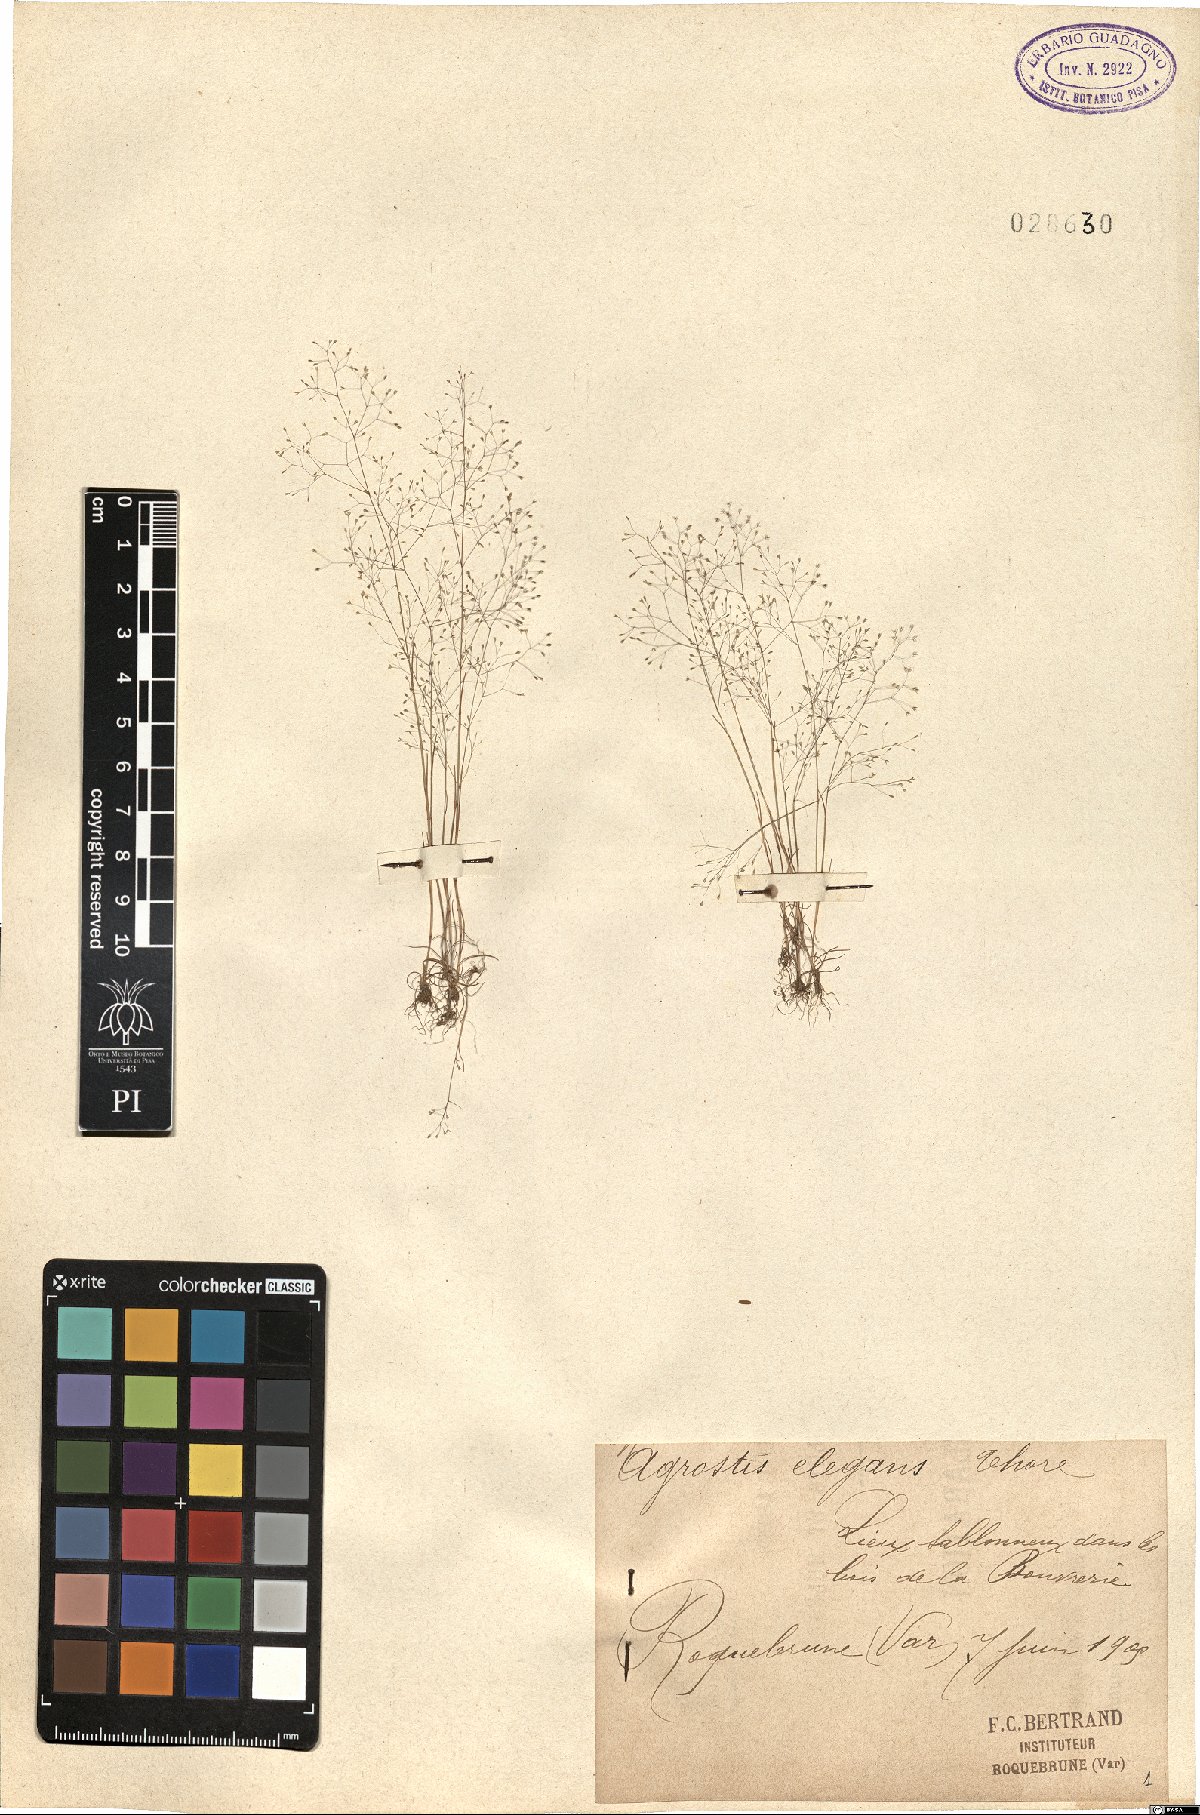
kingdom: Plantae
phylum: Tracheophyta
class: Liliopsida
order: Poales
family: Poaceae
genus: Agrostis
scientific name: Agrostis tenerrima
